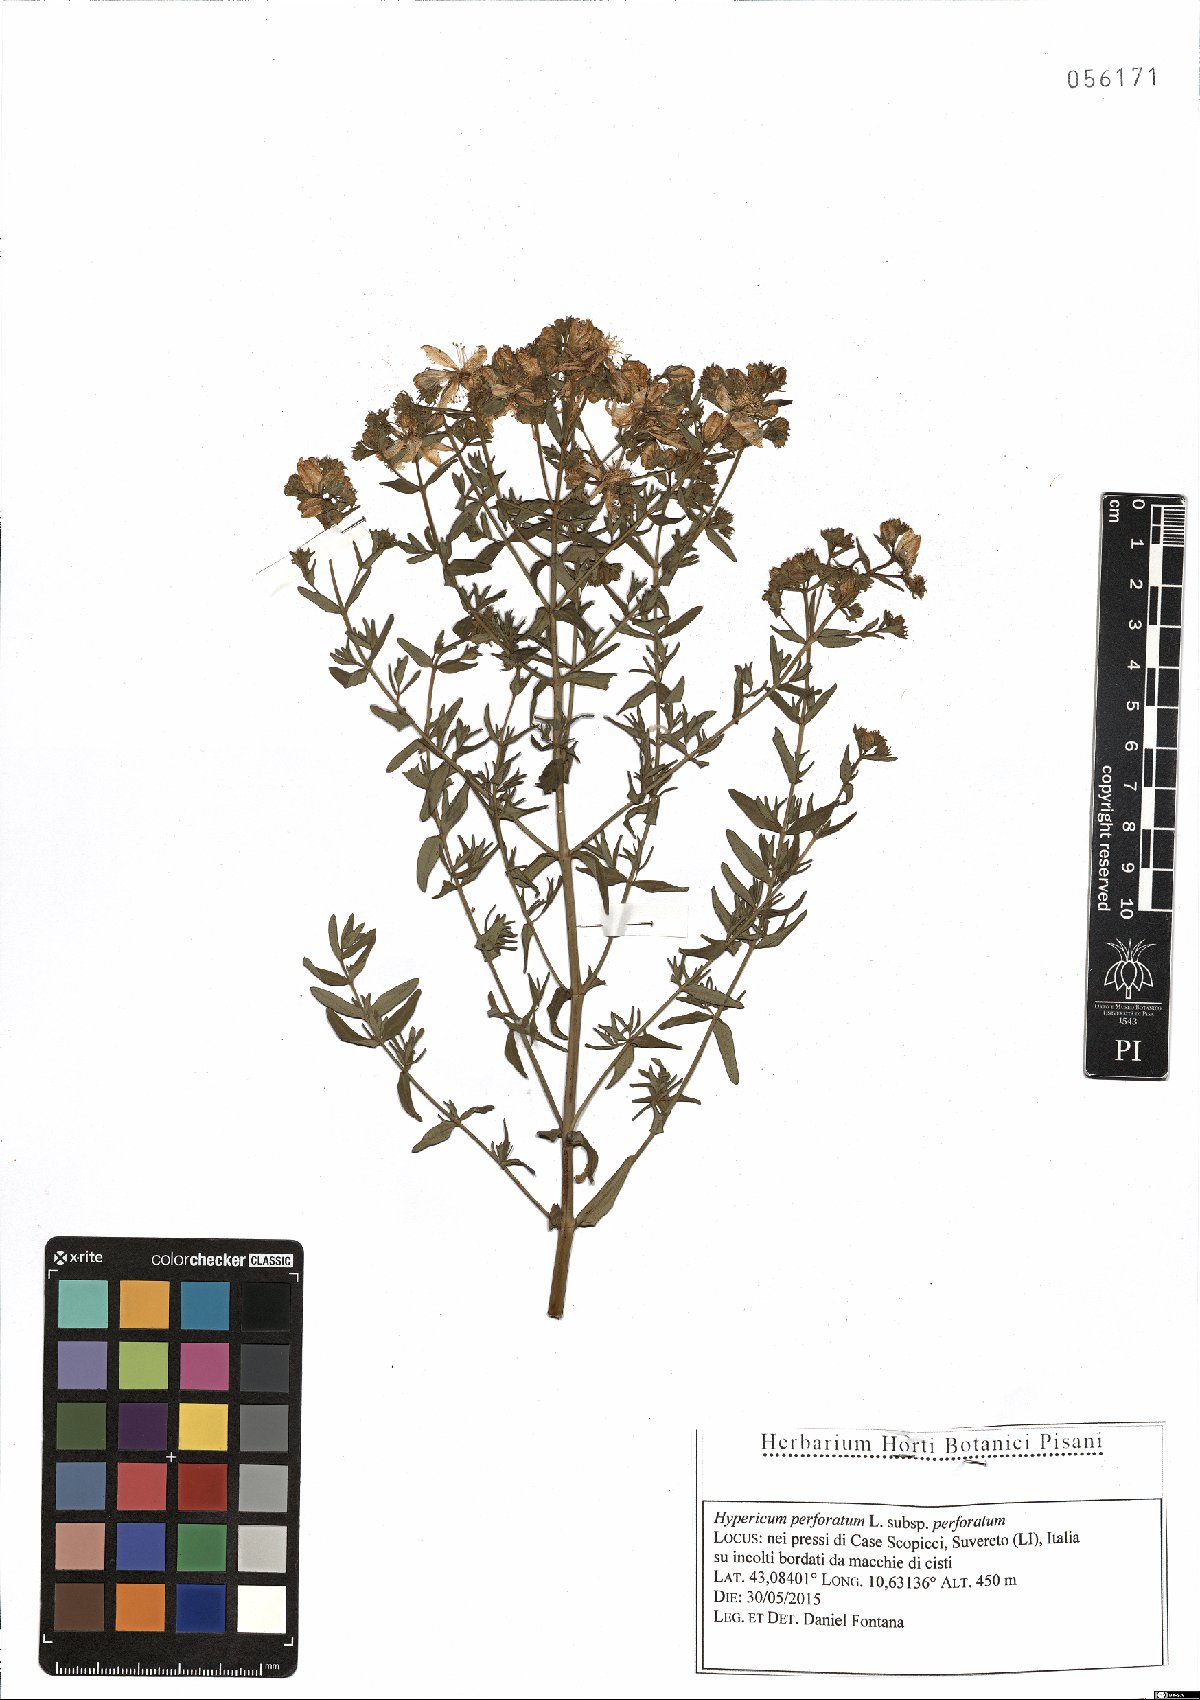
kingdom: Plantae
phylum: Tracheophyta
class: Magnoliopsida
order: Malpighiales
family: Hypericaceae
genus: Hypericum
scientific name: Hypericum perforatum
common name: Common st. johnswort
